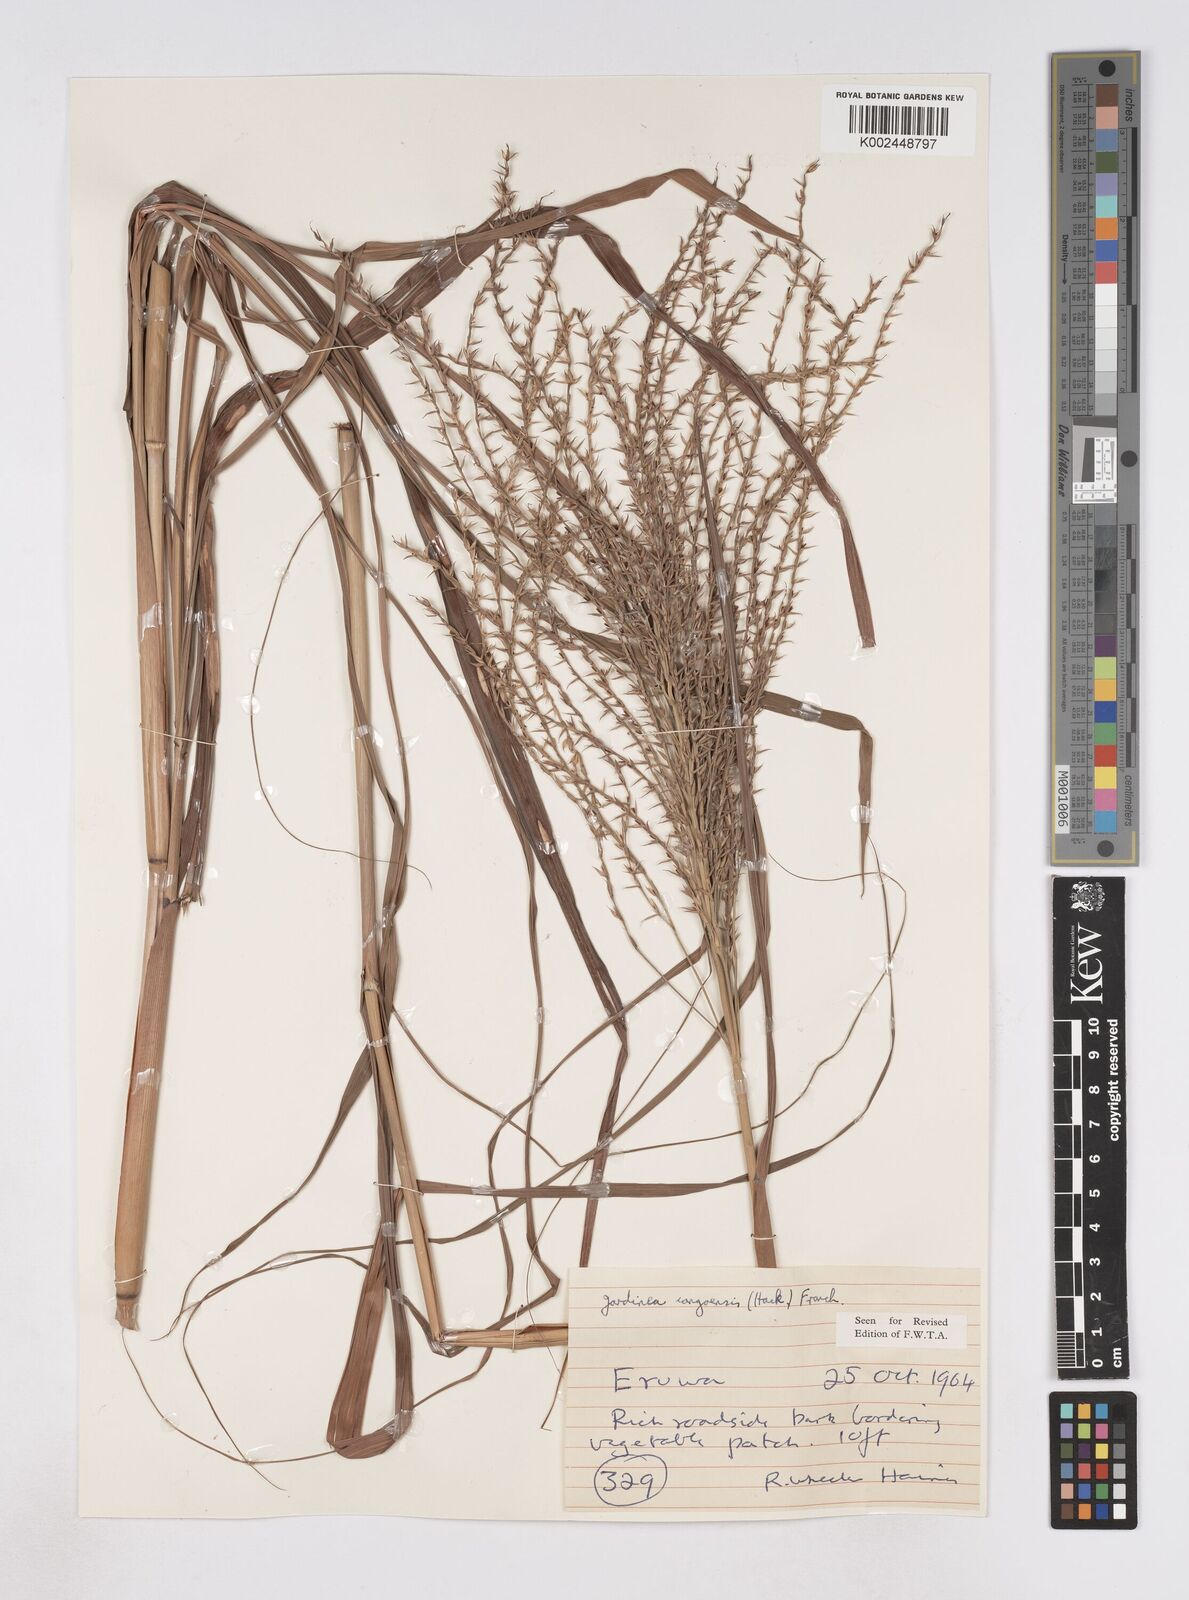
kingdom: Plantae
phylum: Tracheophyta
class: Liliopsida
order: Poales
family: Poaceae
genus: Phacelurus
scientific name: Phacelurus gabonensis
